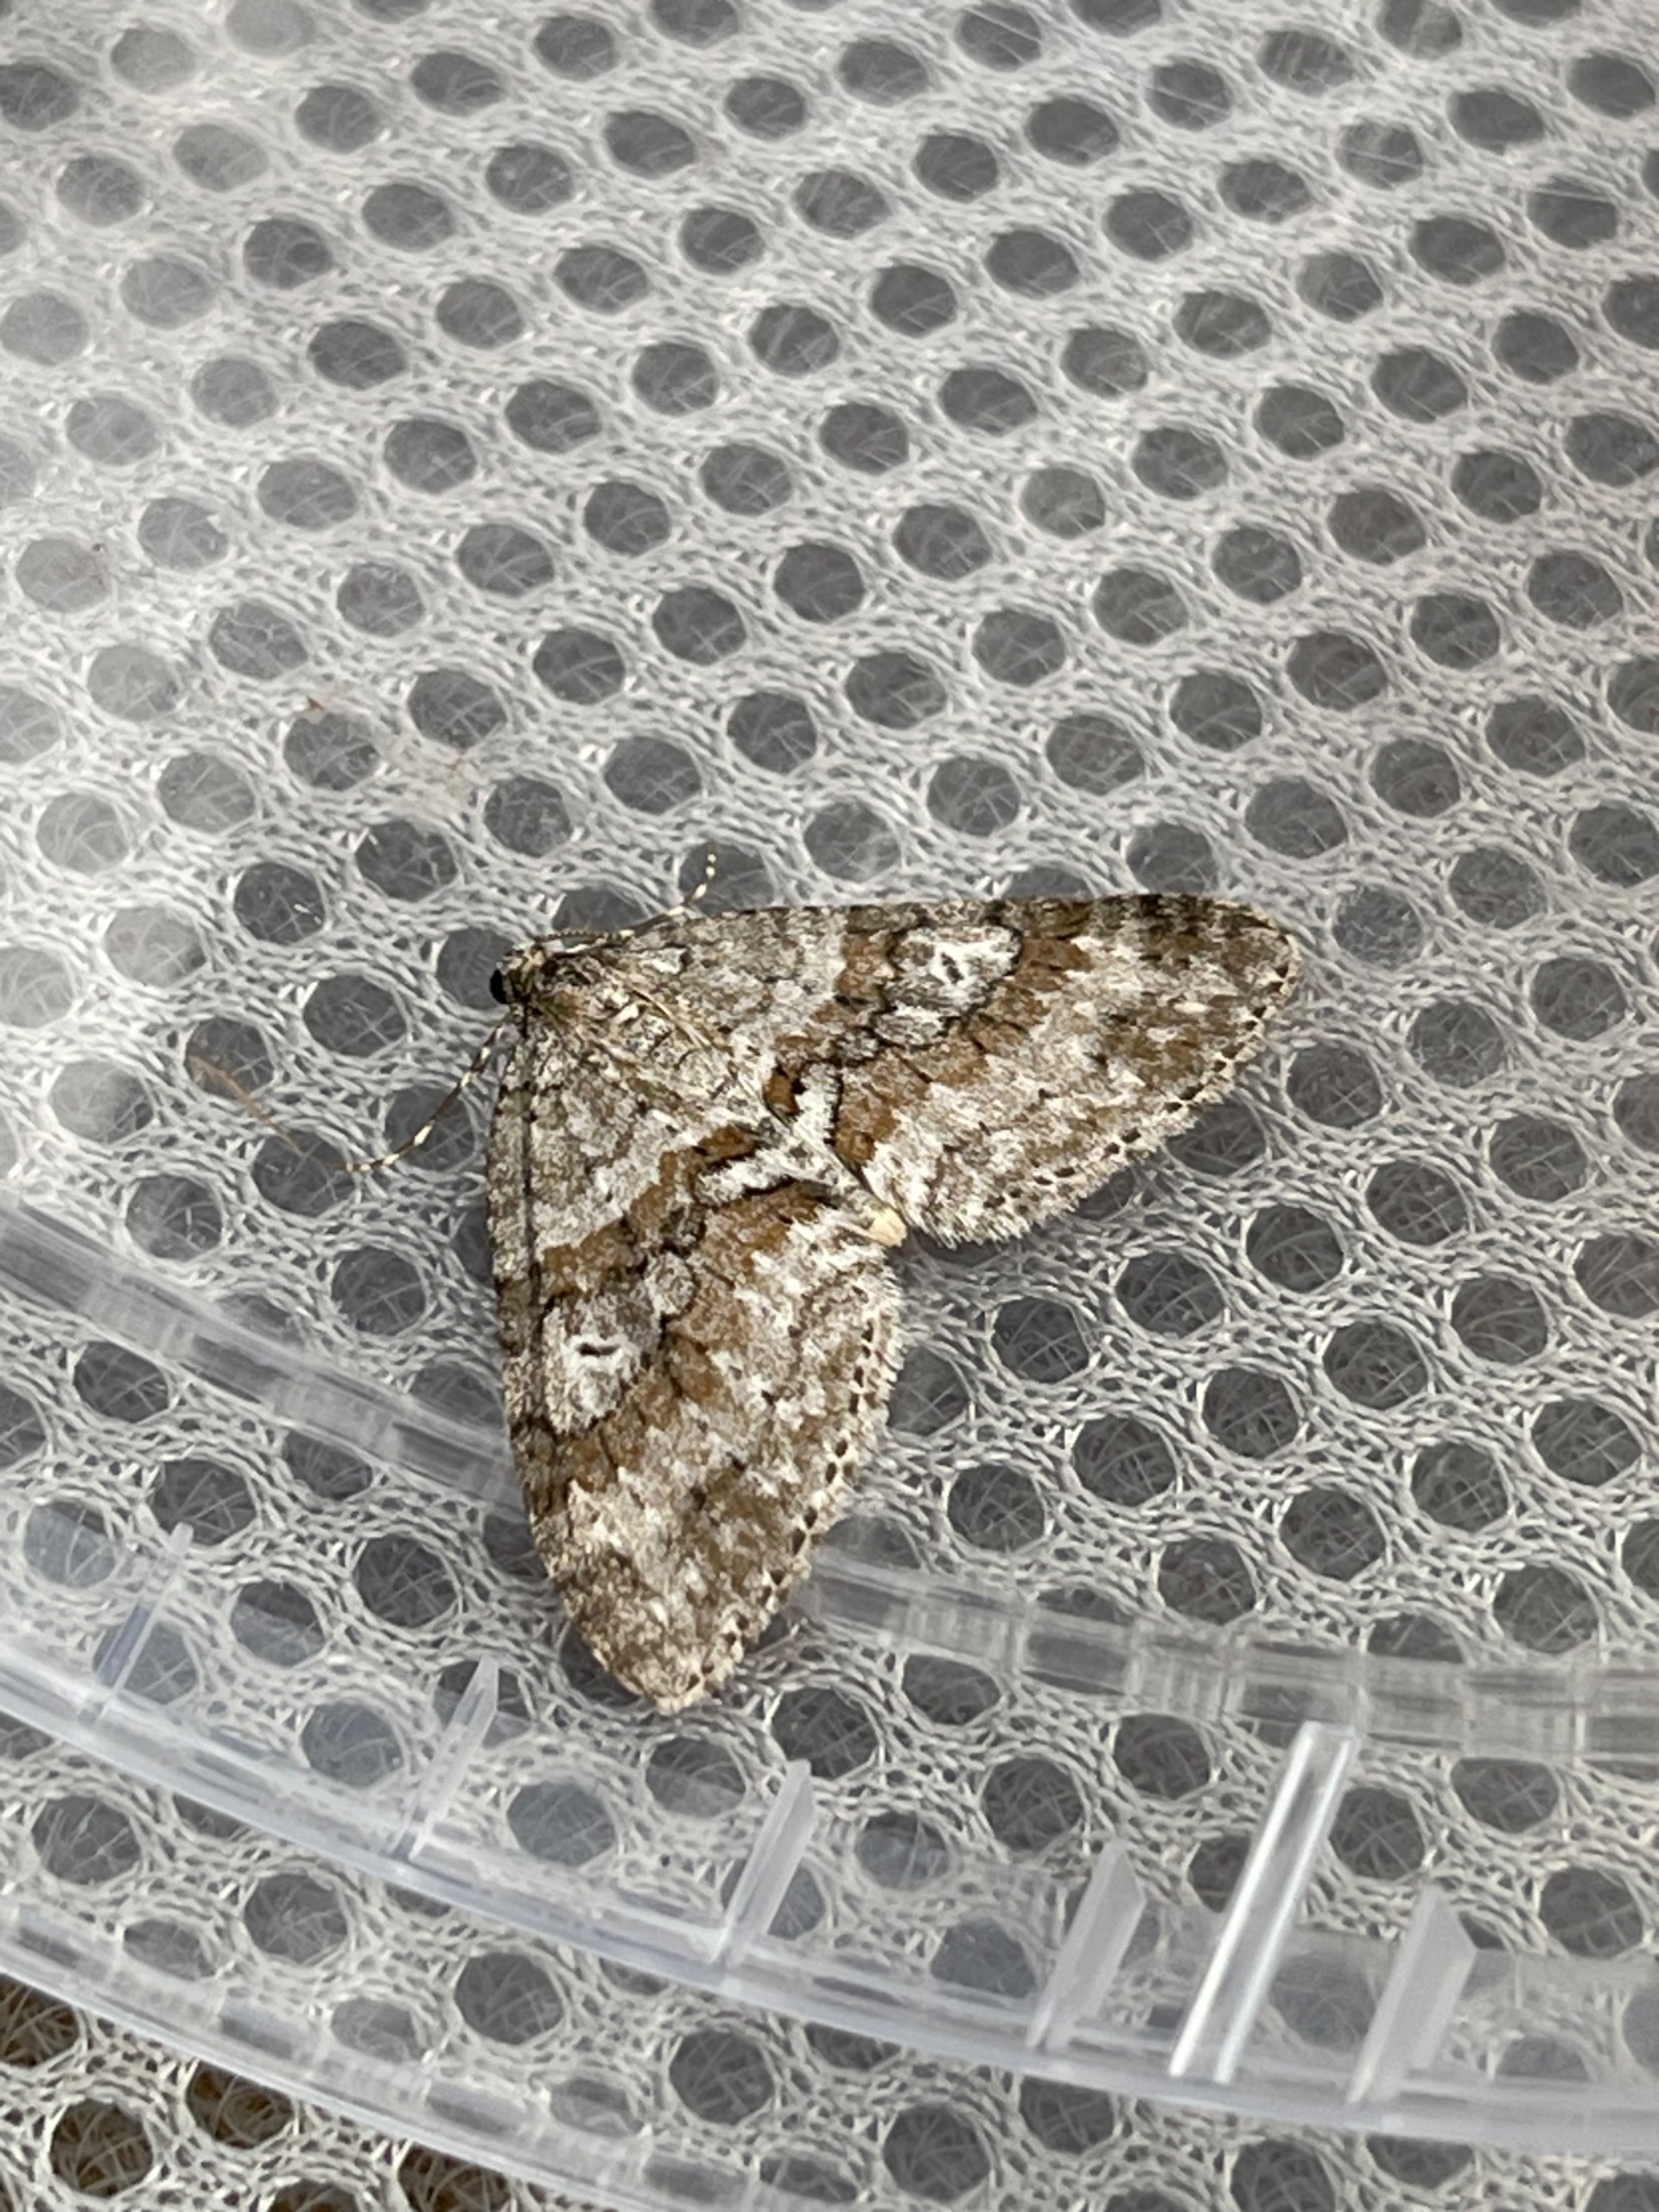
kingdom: Animalia
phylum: Arthropoda
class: Insecta
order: Lepidoptera
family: Geometridae
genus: Nothocasis
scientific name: Nothocasis sertata
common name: Ahornmåler
